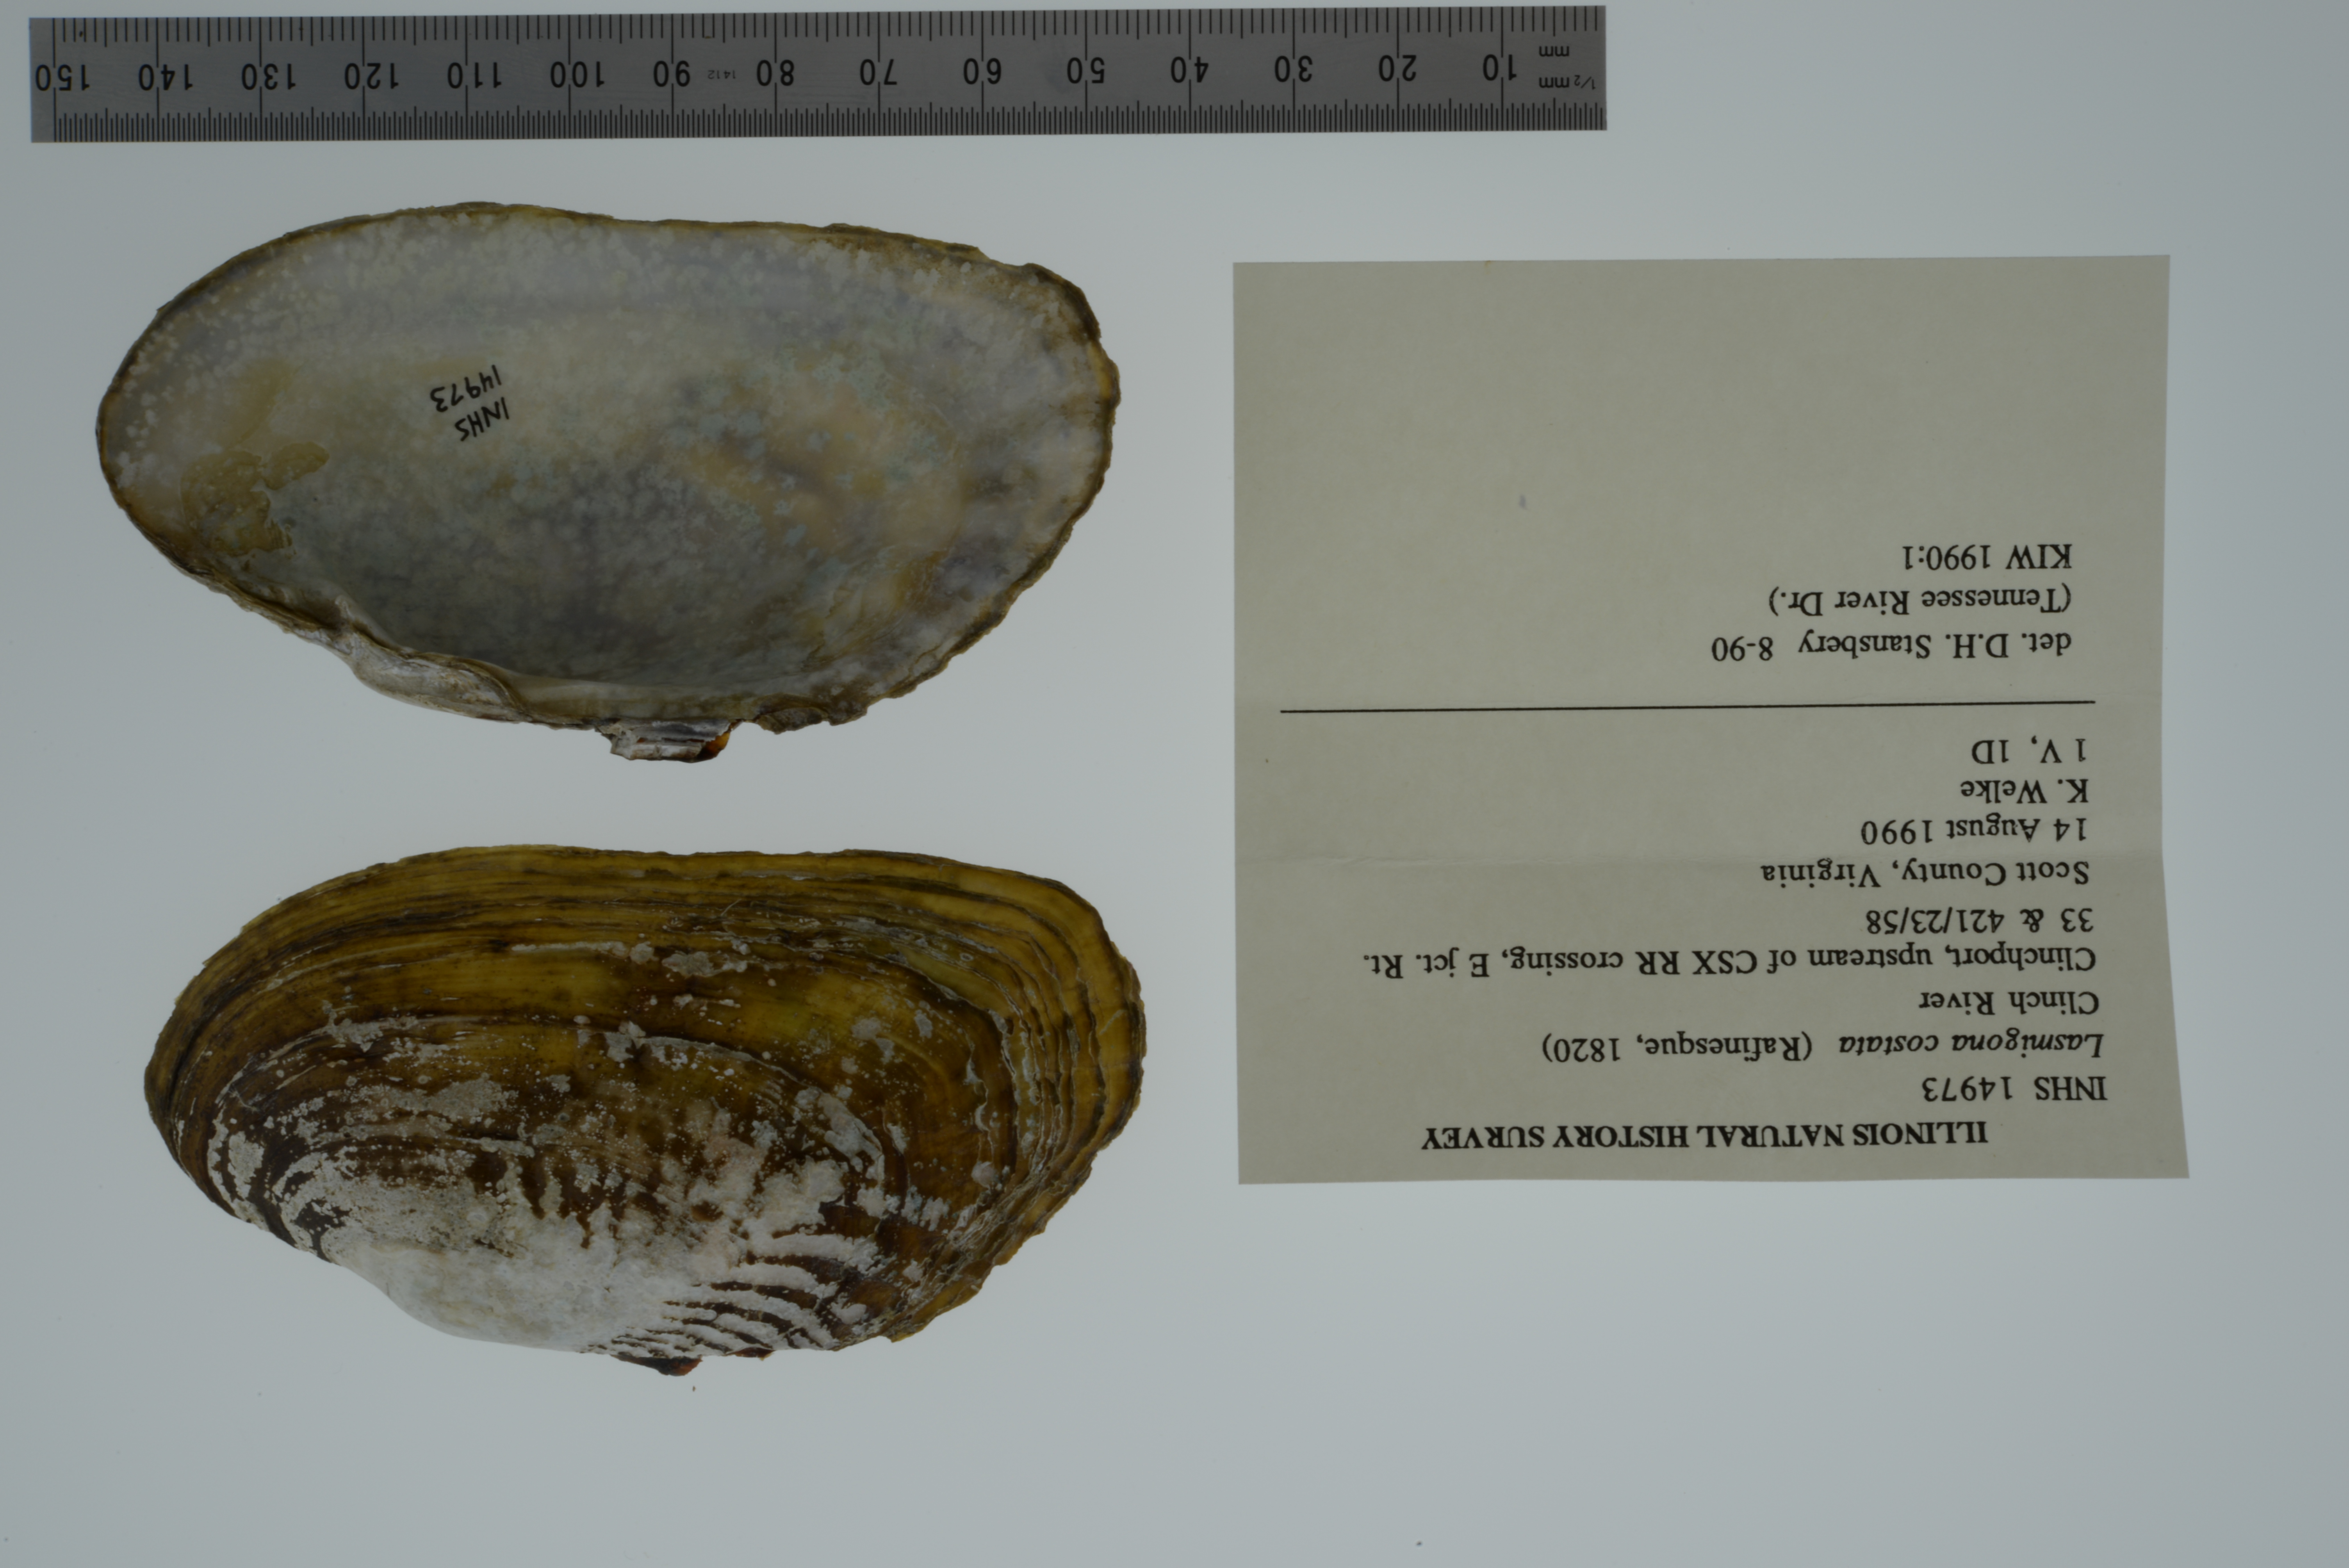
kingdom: Animalia
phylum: Mollusca
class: Bivalvia
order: Unionida
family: Unionidae
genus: Lasmigona
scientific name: Lasmigona costata
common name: Flutedshell
